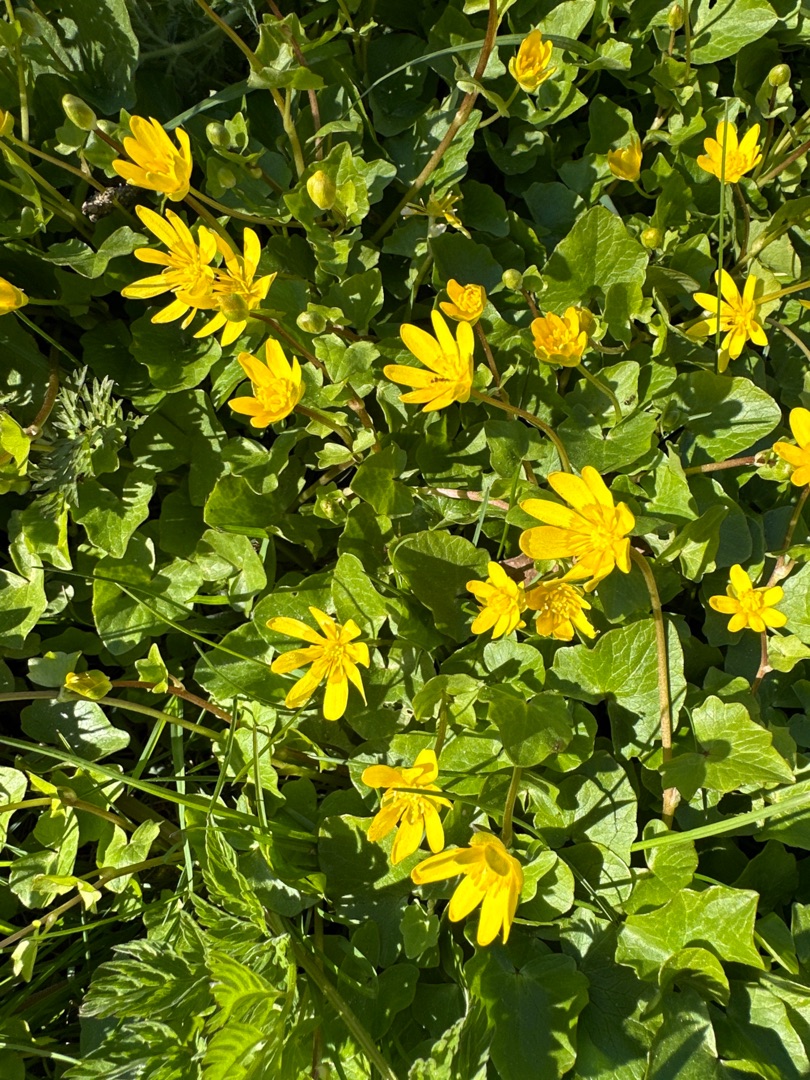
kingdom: Plantae
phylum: Tracheophyta
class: Magnoliopsida
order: Ranunculales
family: Ranunculaceae
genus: Ficaria
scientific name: Ficaria verna
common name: Vorterod
